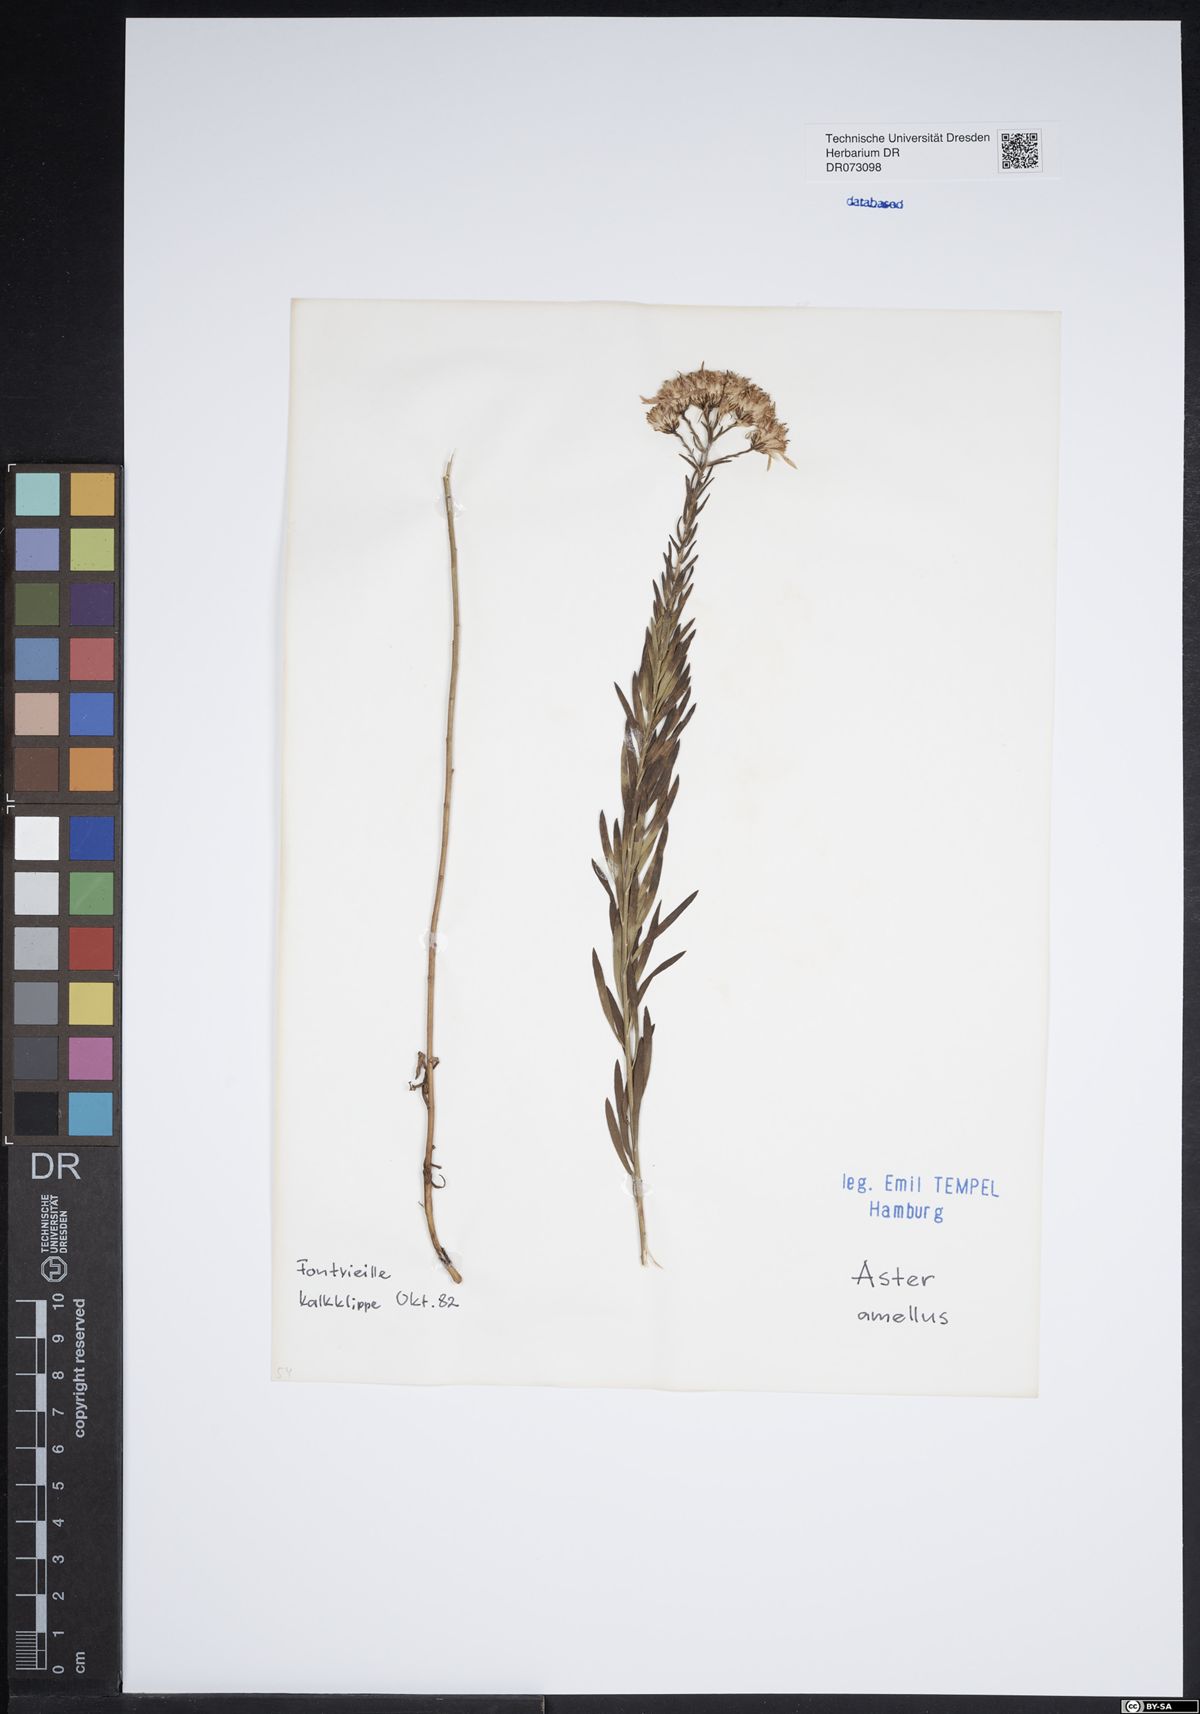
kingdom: Plantae
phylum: Tracheophyta
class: Magnoliopsida
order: Asterales
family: Asteraceae
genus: Echinops
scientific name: Echinops ritro
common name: Globe thistle
